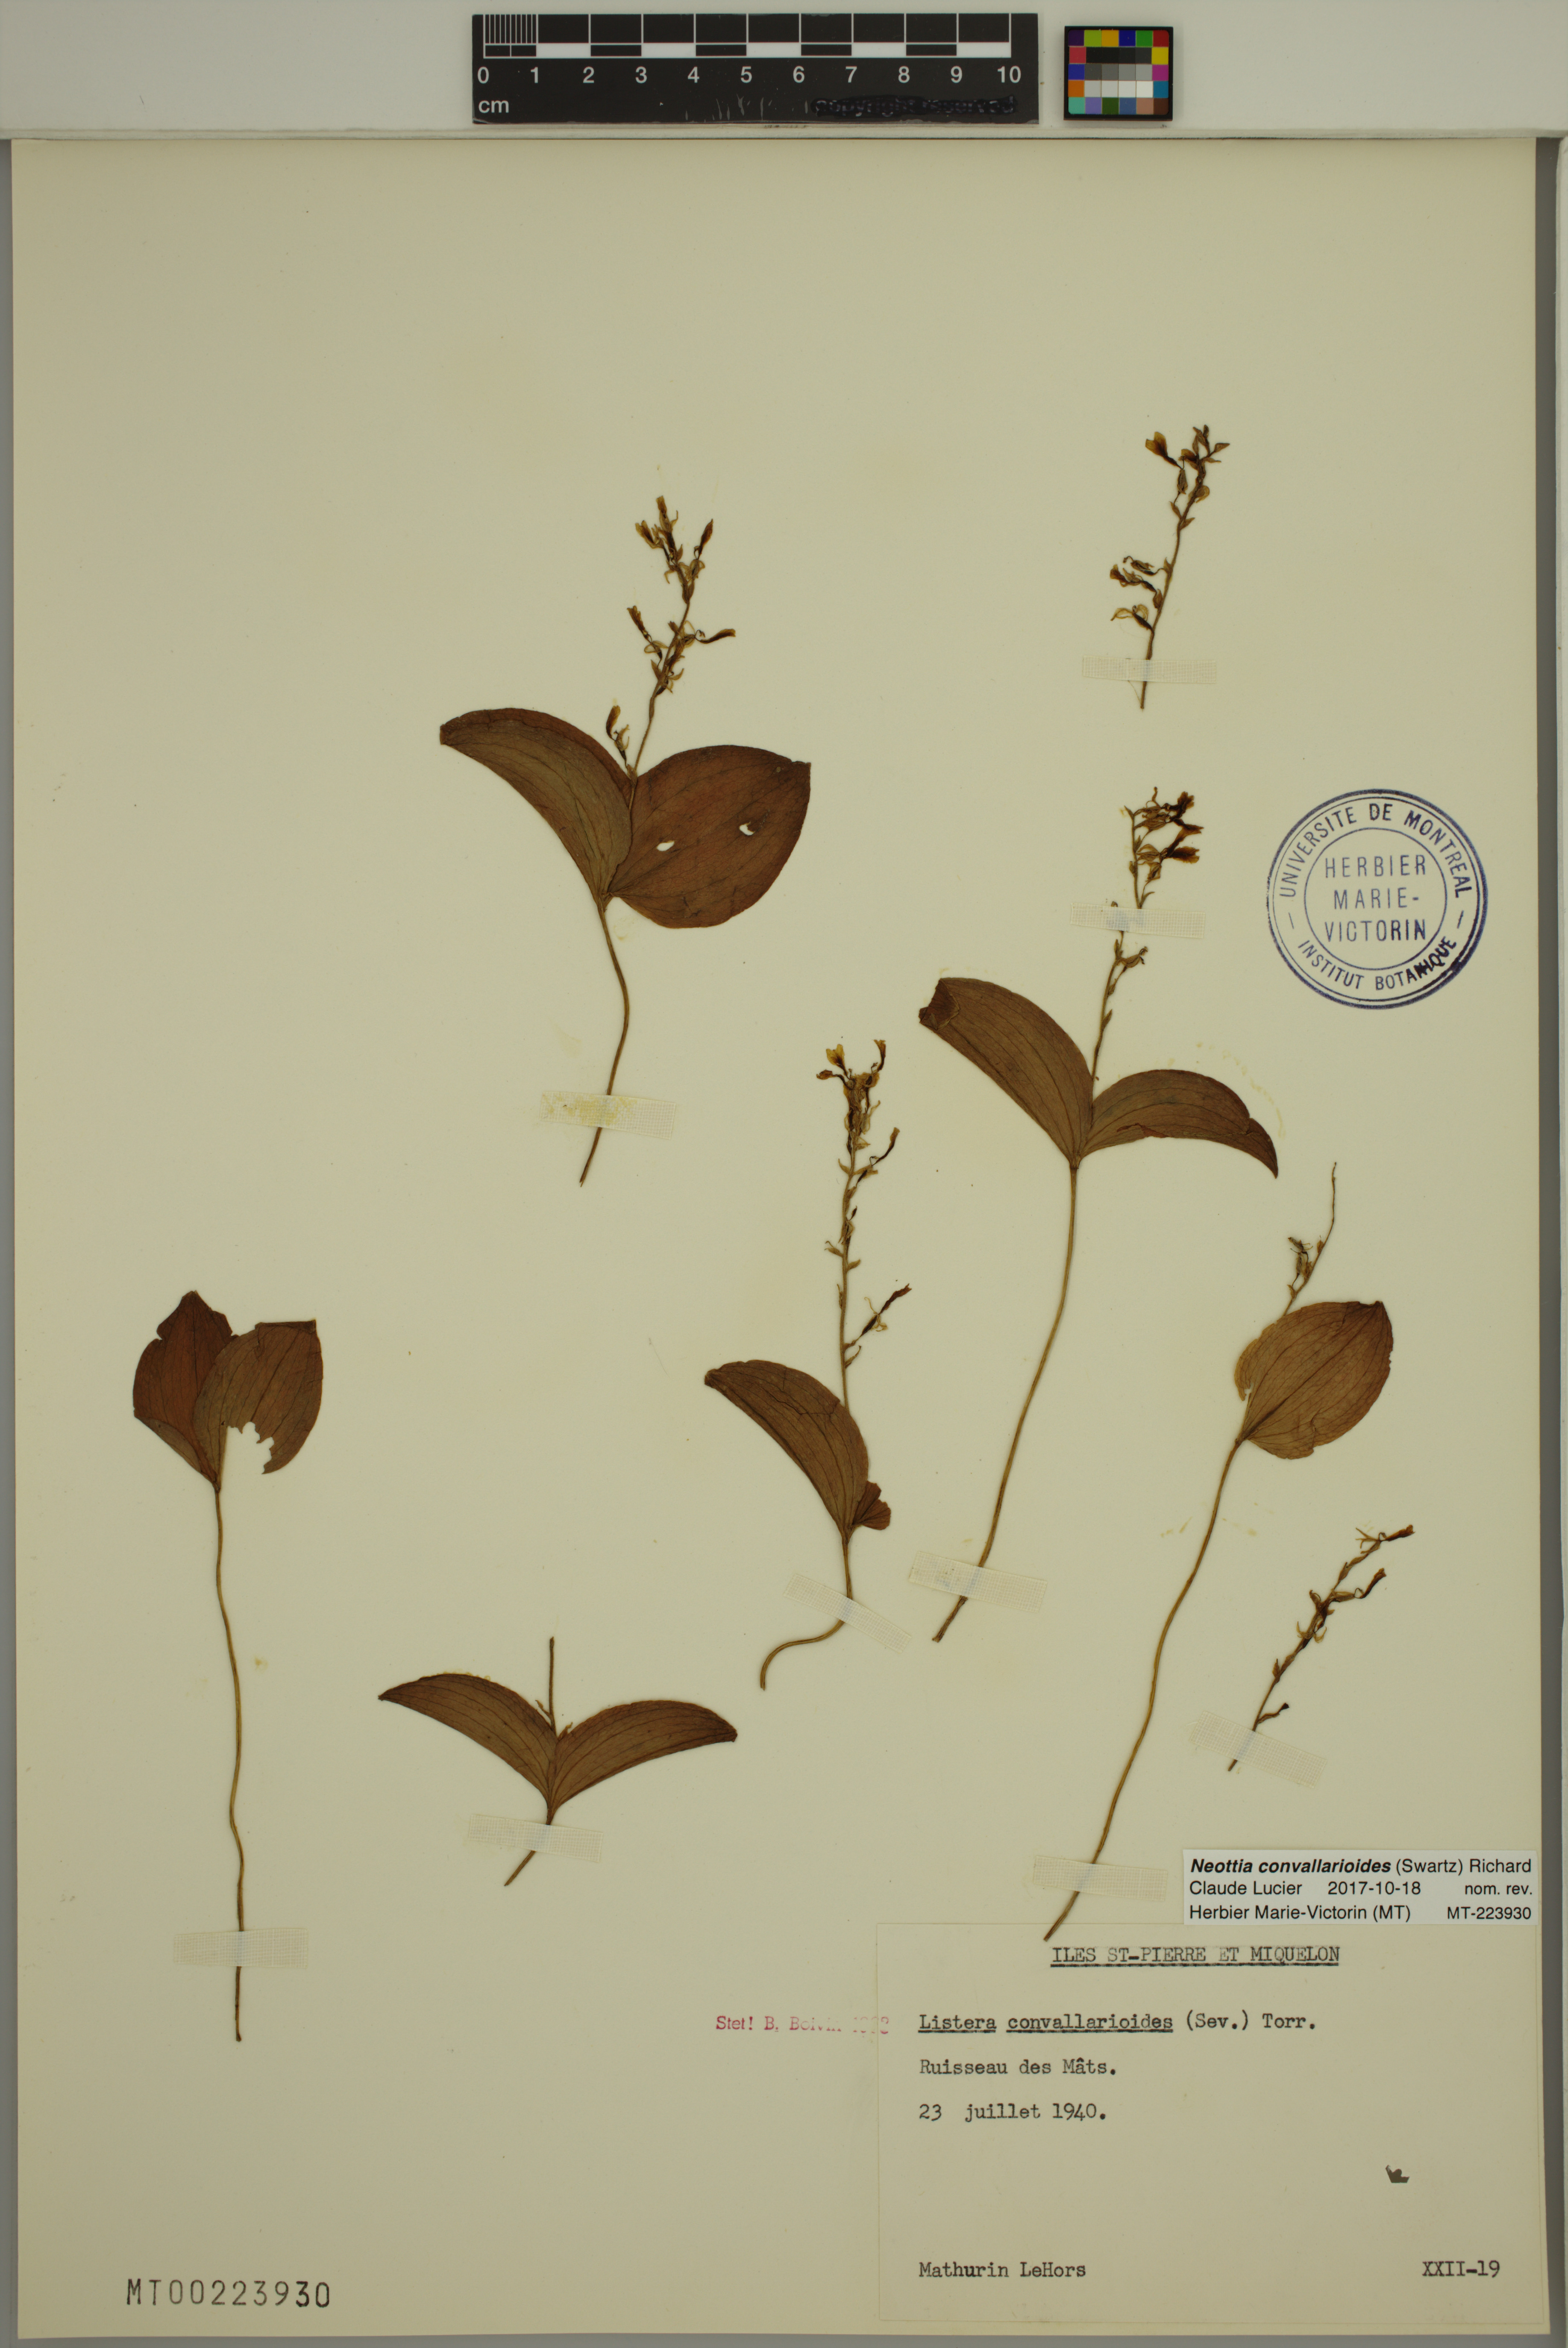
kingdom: Plantae
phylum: Tracheophyta
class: Liliopsida
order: Asparagales
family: Orchidaceae
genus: Neottia
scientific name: Neottia convallarioides
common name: Broadleaf twayblade
